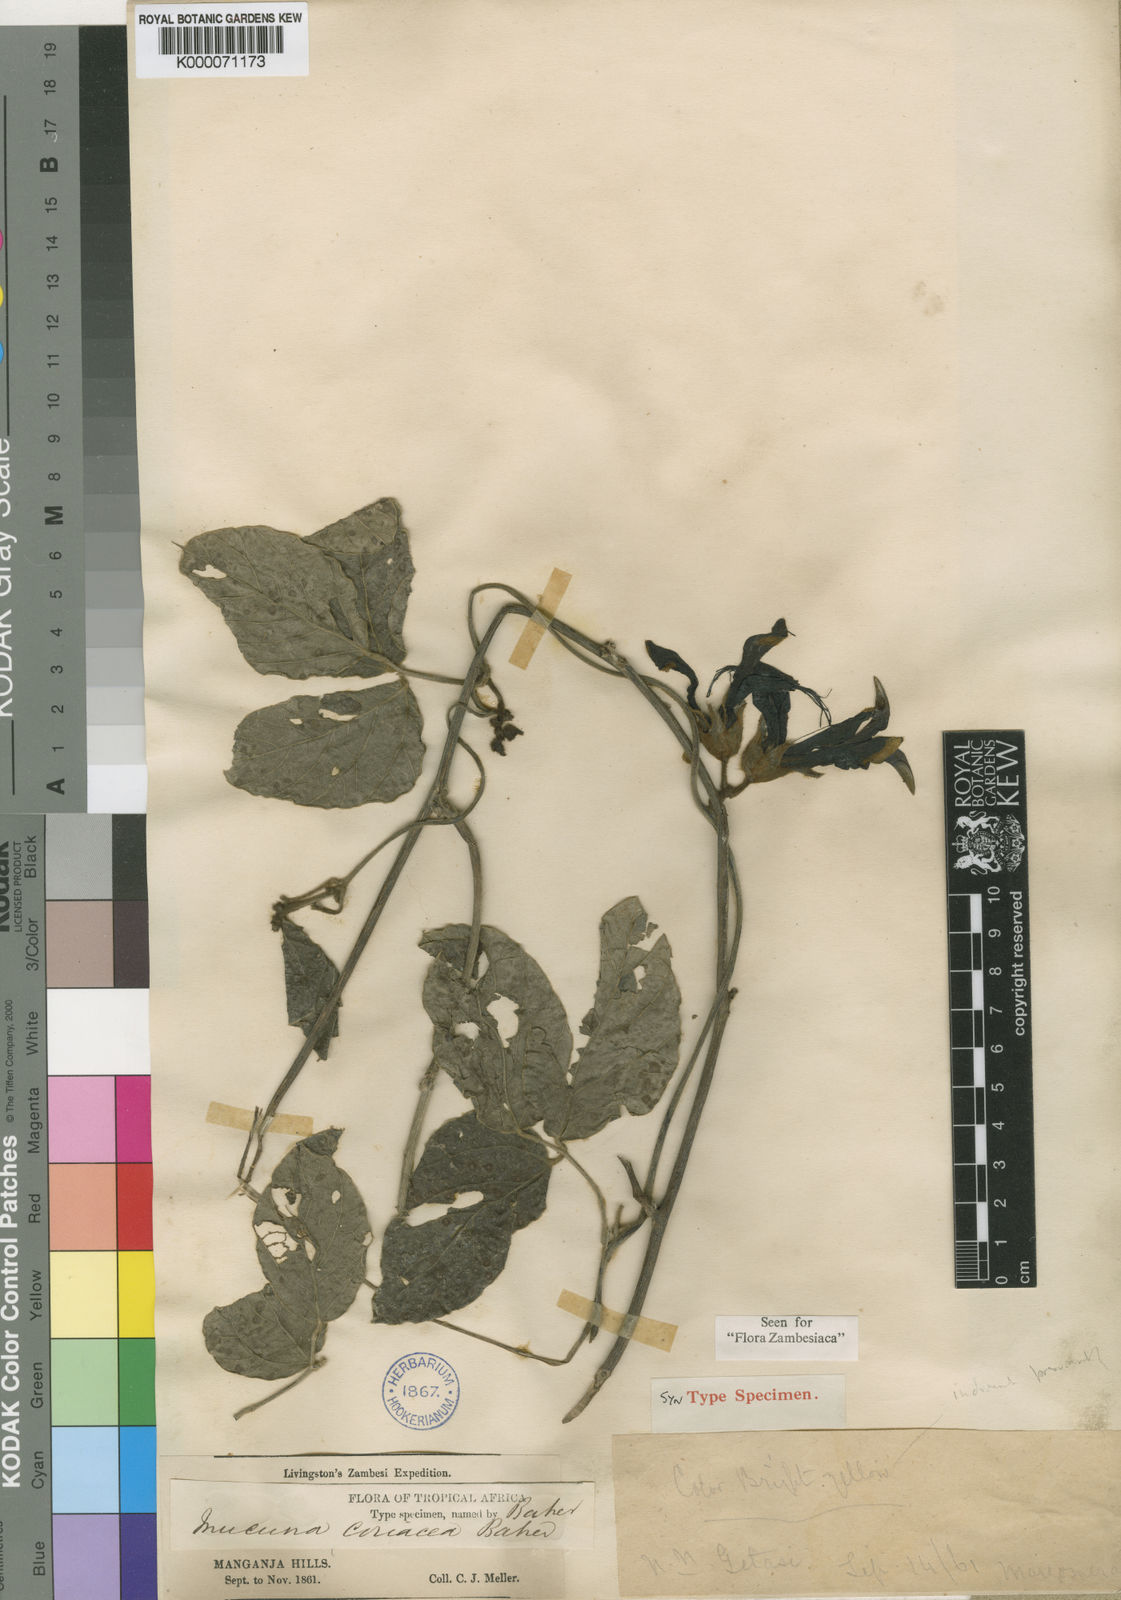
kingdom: Plantae
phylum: Tracheophyta
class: Magnoliopsida
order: Fabales
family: Fabaceae
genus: Mucuna
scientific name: Mucuna coriacea
